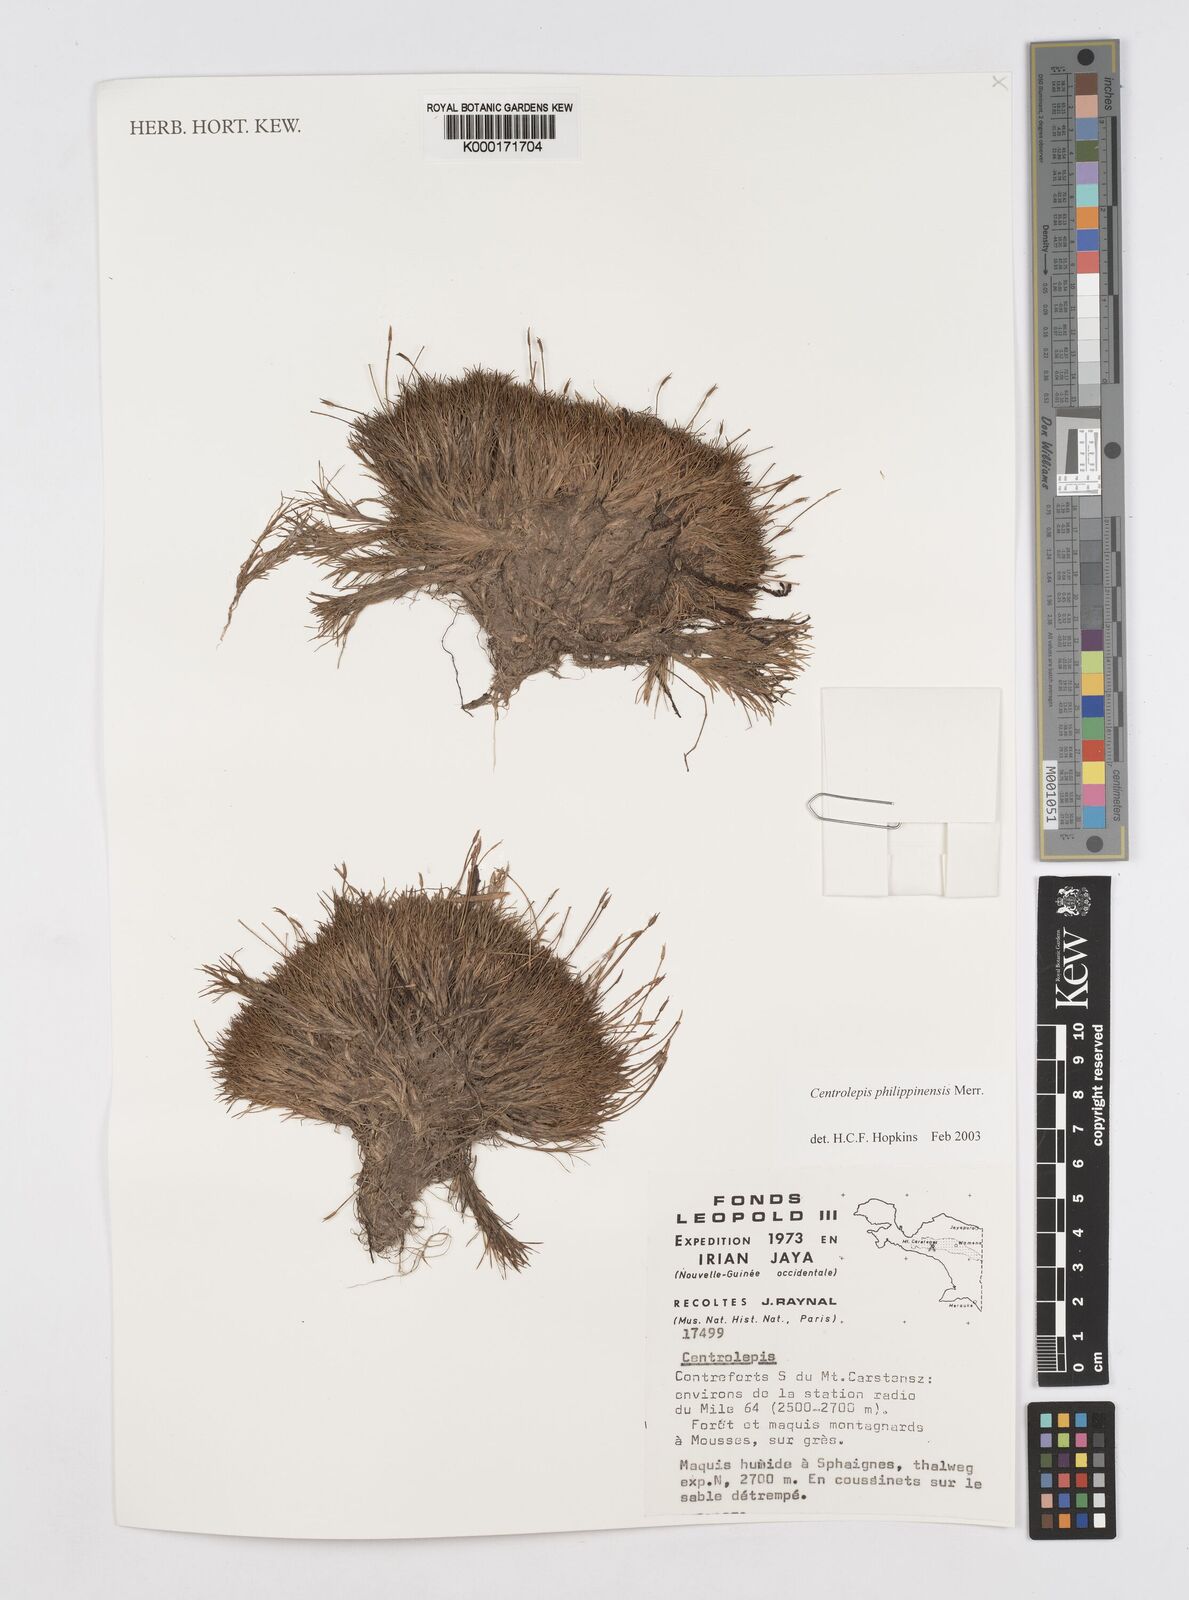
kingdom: Plantae
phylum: Tracheophyta
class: Liliopsida
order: Poales
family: Restionaceae
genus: Centrolepis
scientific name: Centrolepis philippinensis
